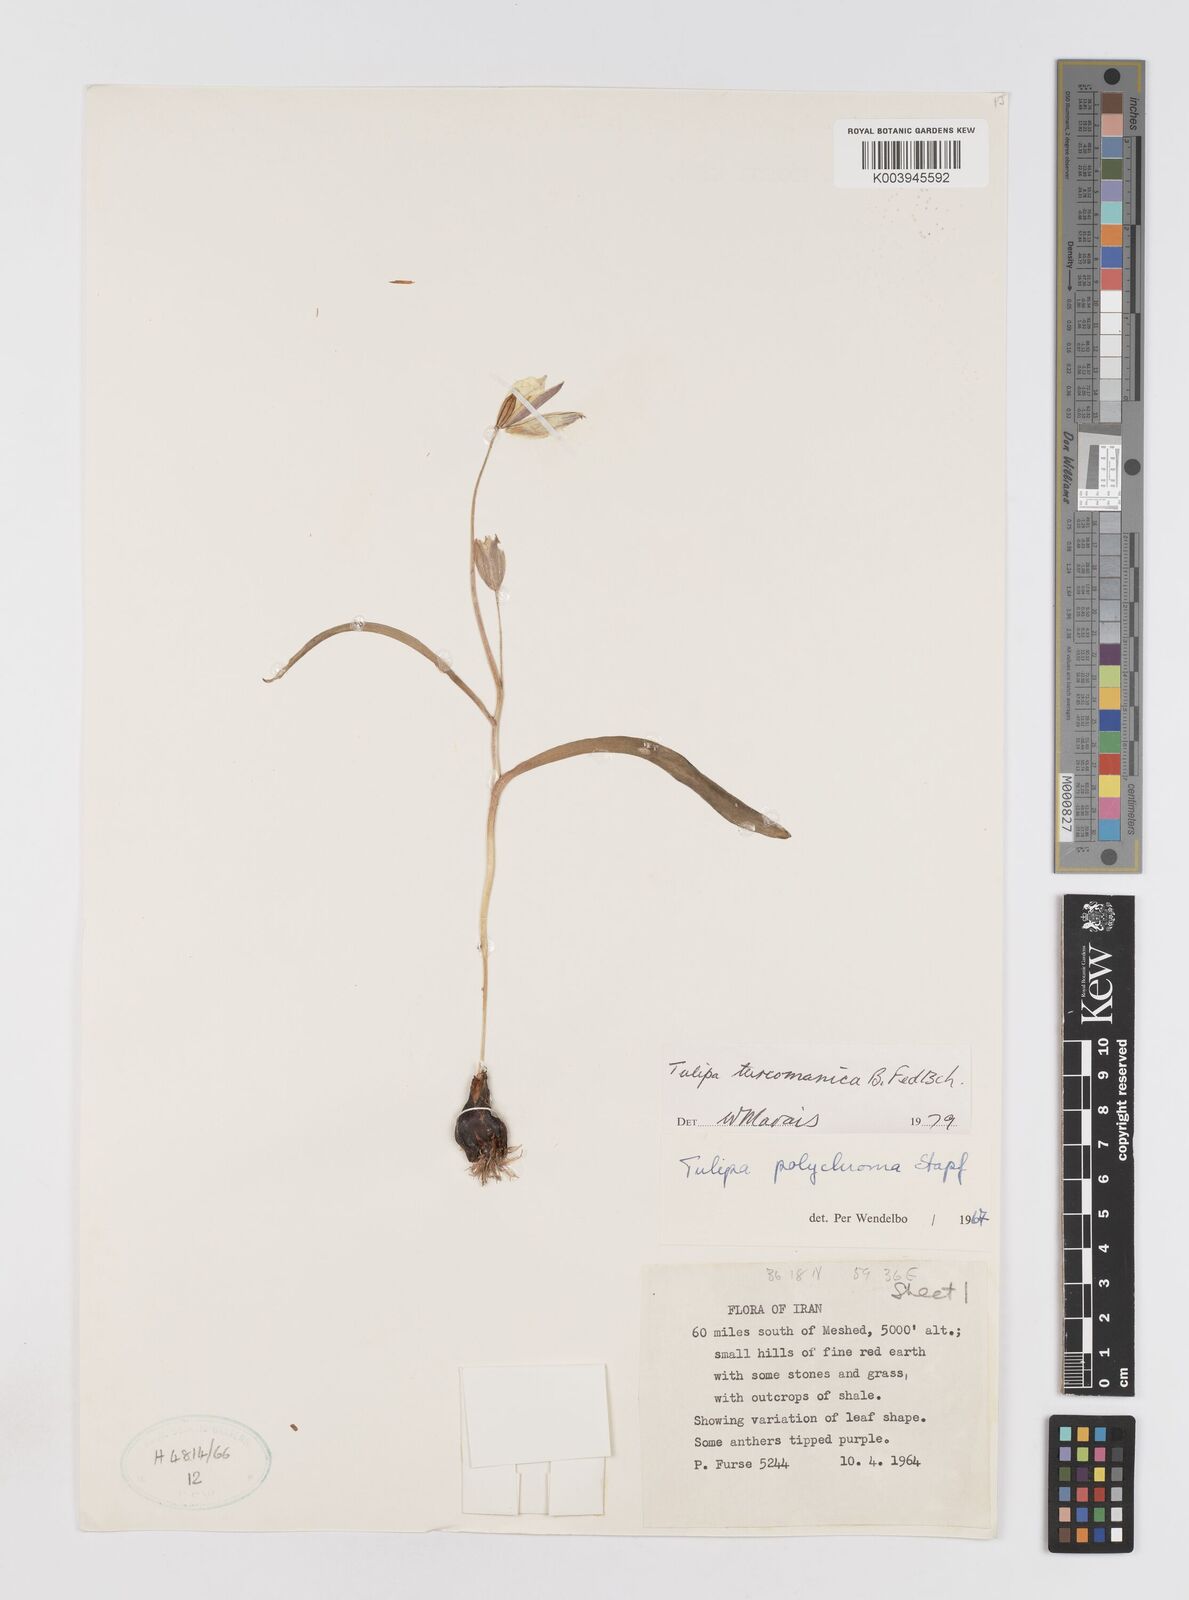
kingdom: Plantae
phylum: Tracheophyta
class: Liliopsida
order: Liliales
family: Liliaceae
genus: Tulipa
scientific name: Tulipa biflora
